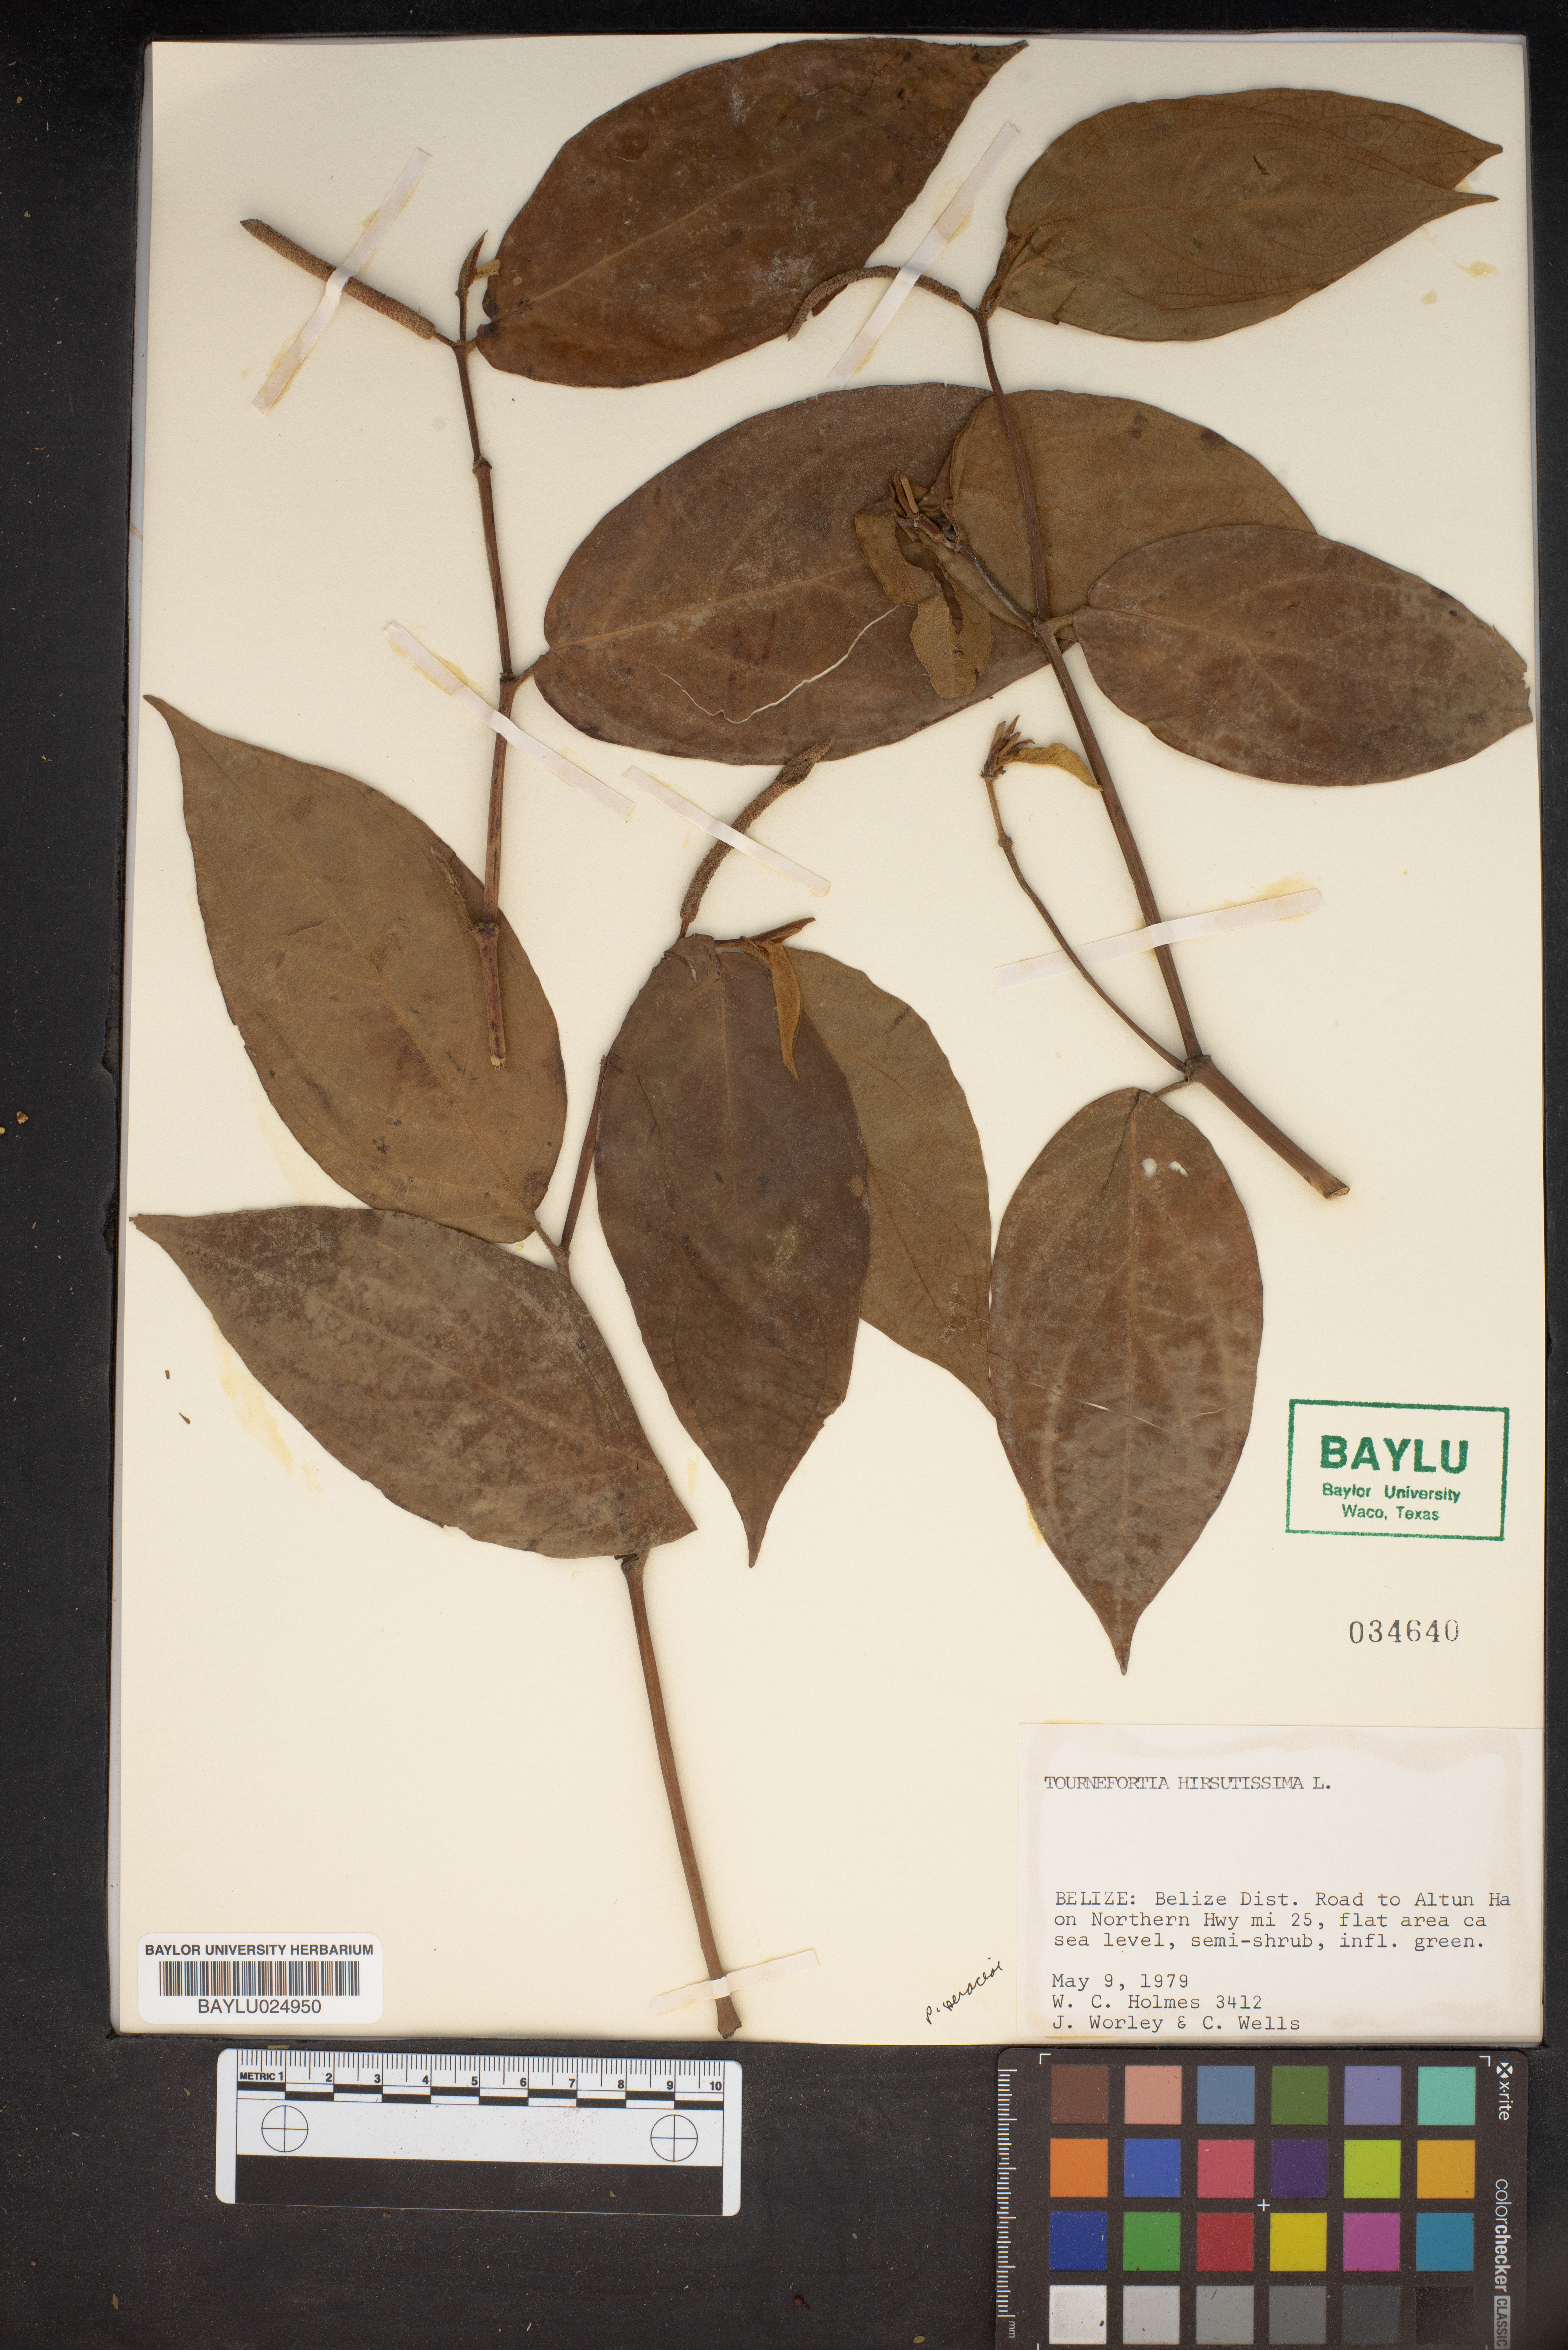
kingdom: Plantae
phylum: Tracheophyta
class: Magnoliopsida
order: Boraginales
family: Heliotropiaceae
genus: Heliotropium
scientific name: Heliotropium verdcourtii
